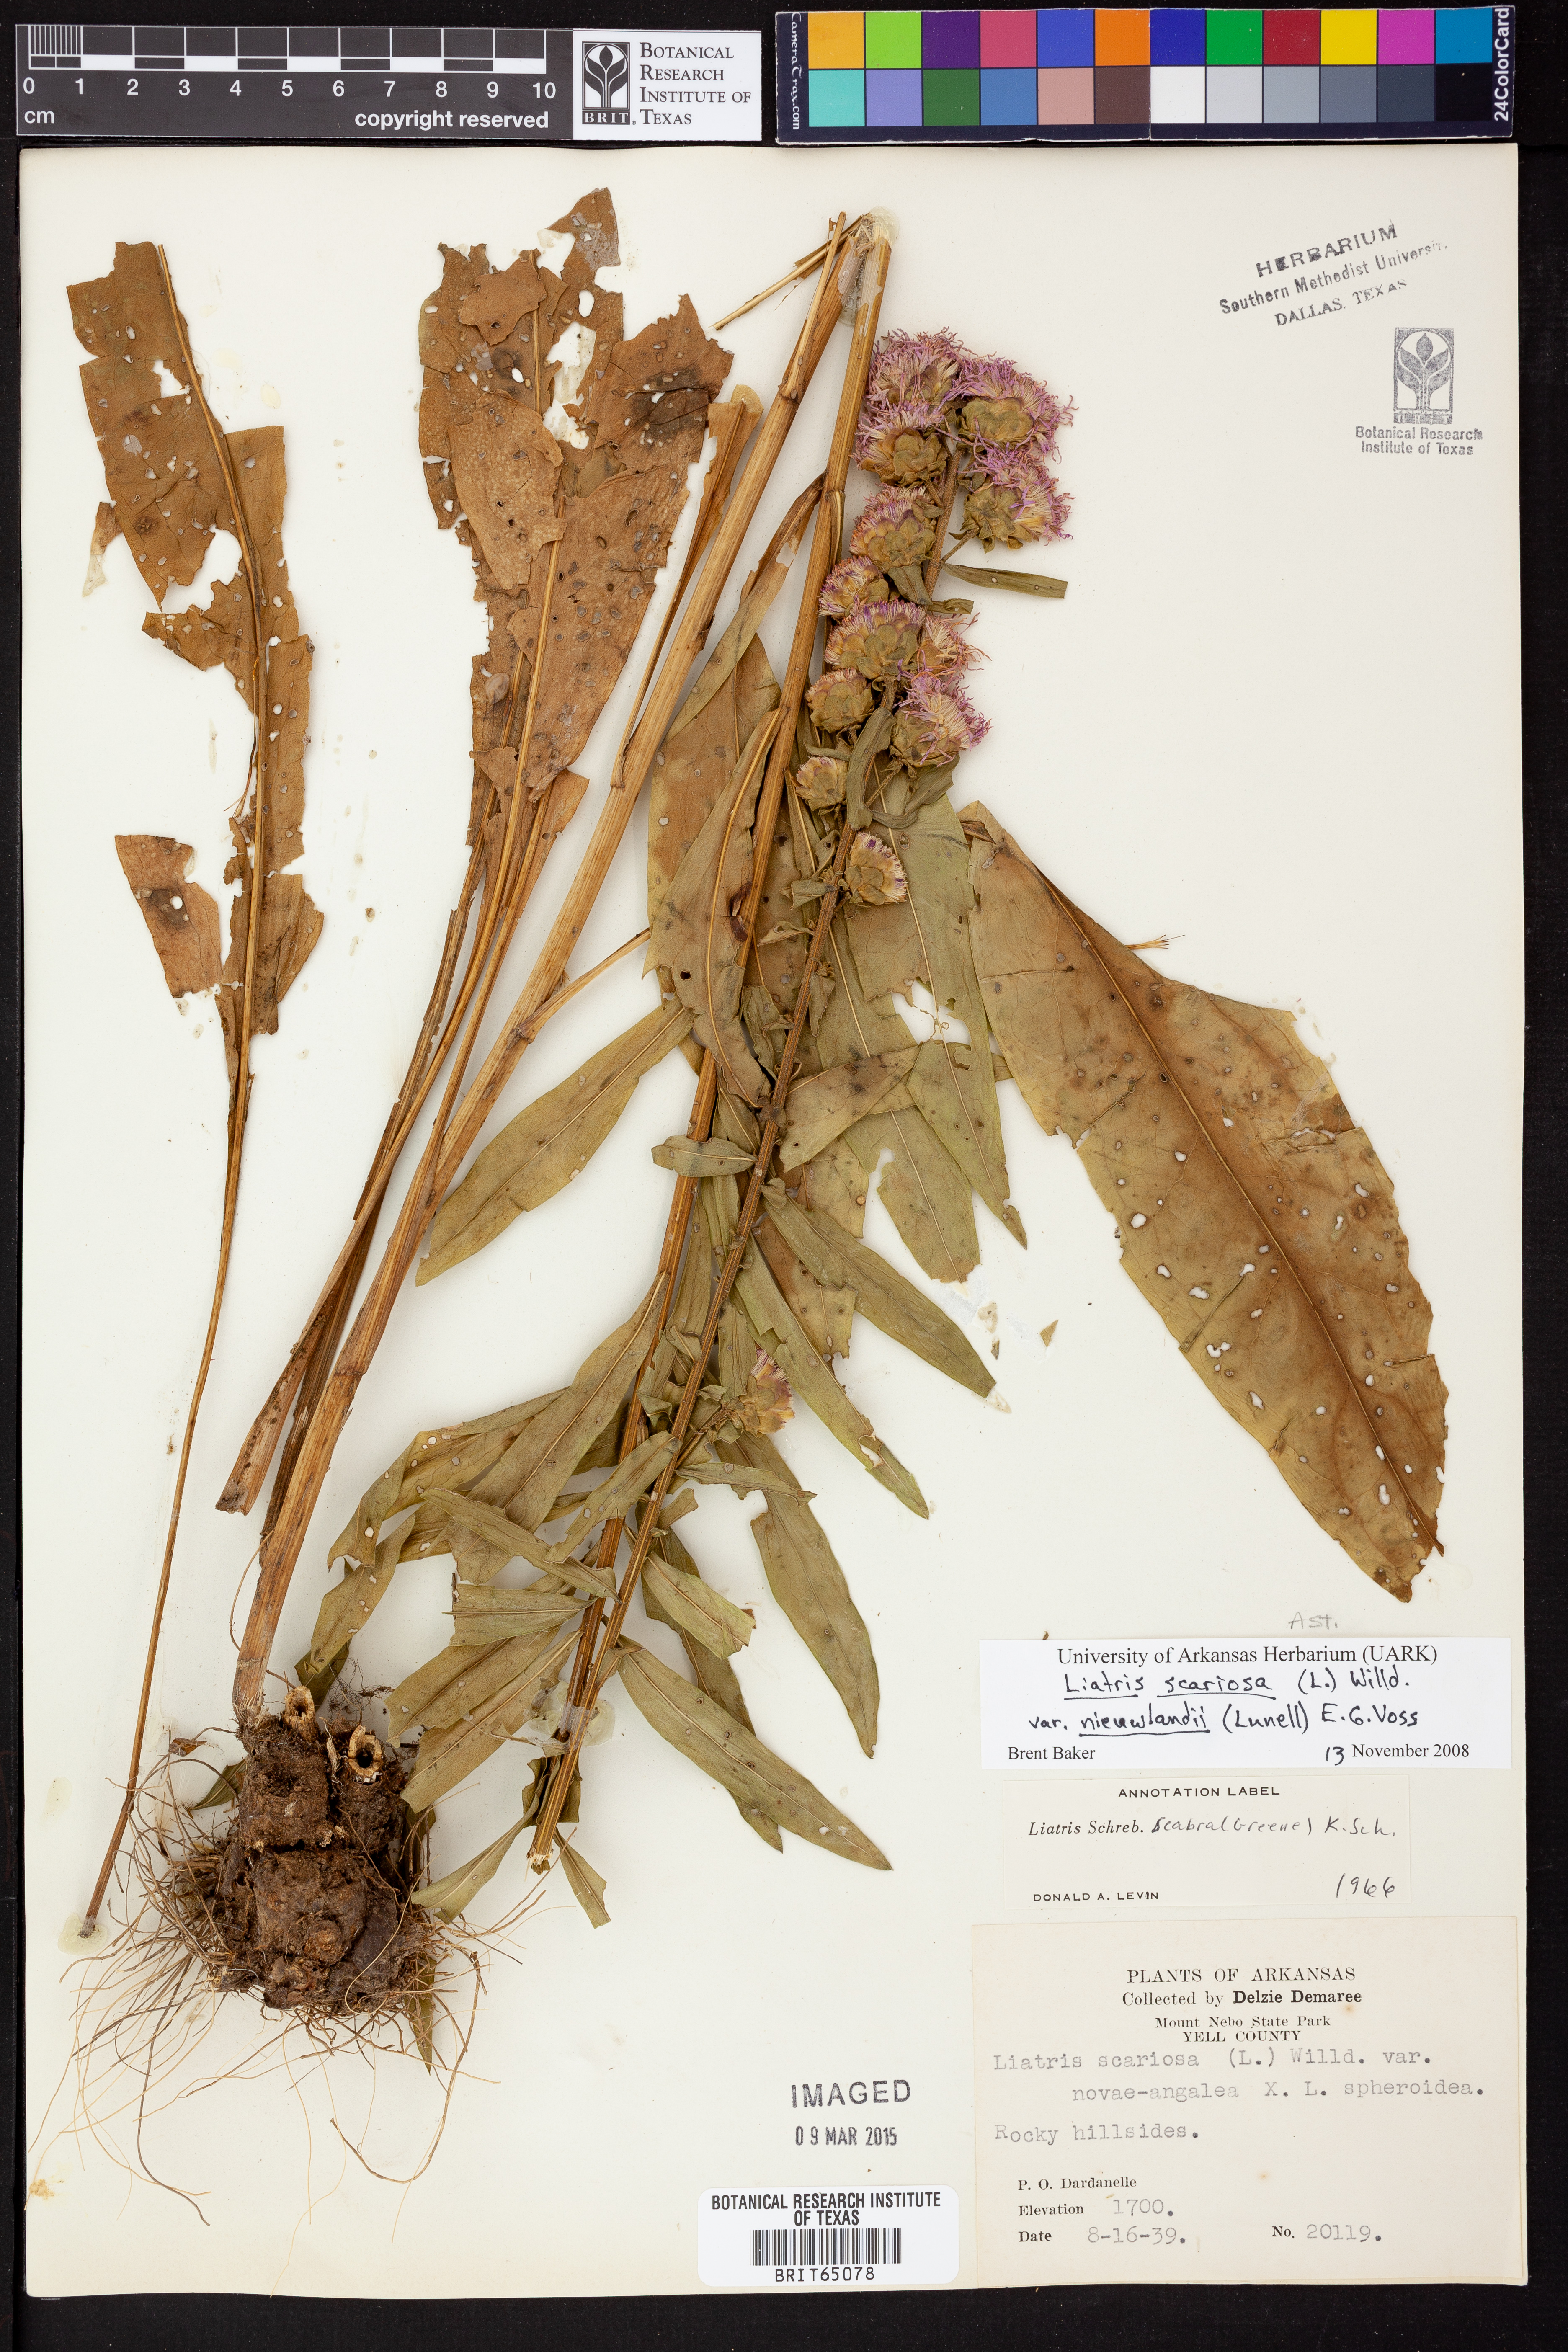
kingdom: Plantae
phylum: Tracheophyta
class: Magnoliopsida
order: Asterales
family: Asteraceae
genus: Liatris
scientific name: Liatris scariosa
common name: Northern gayfeather
